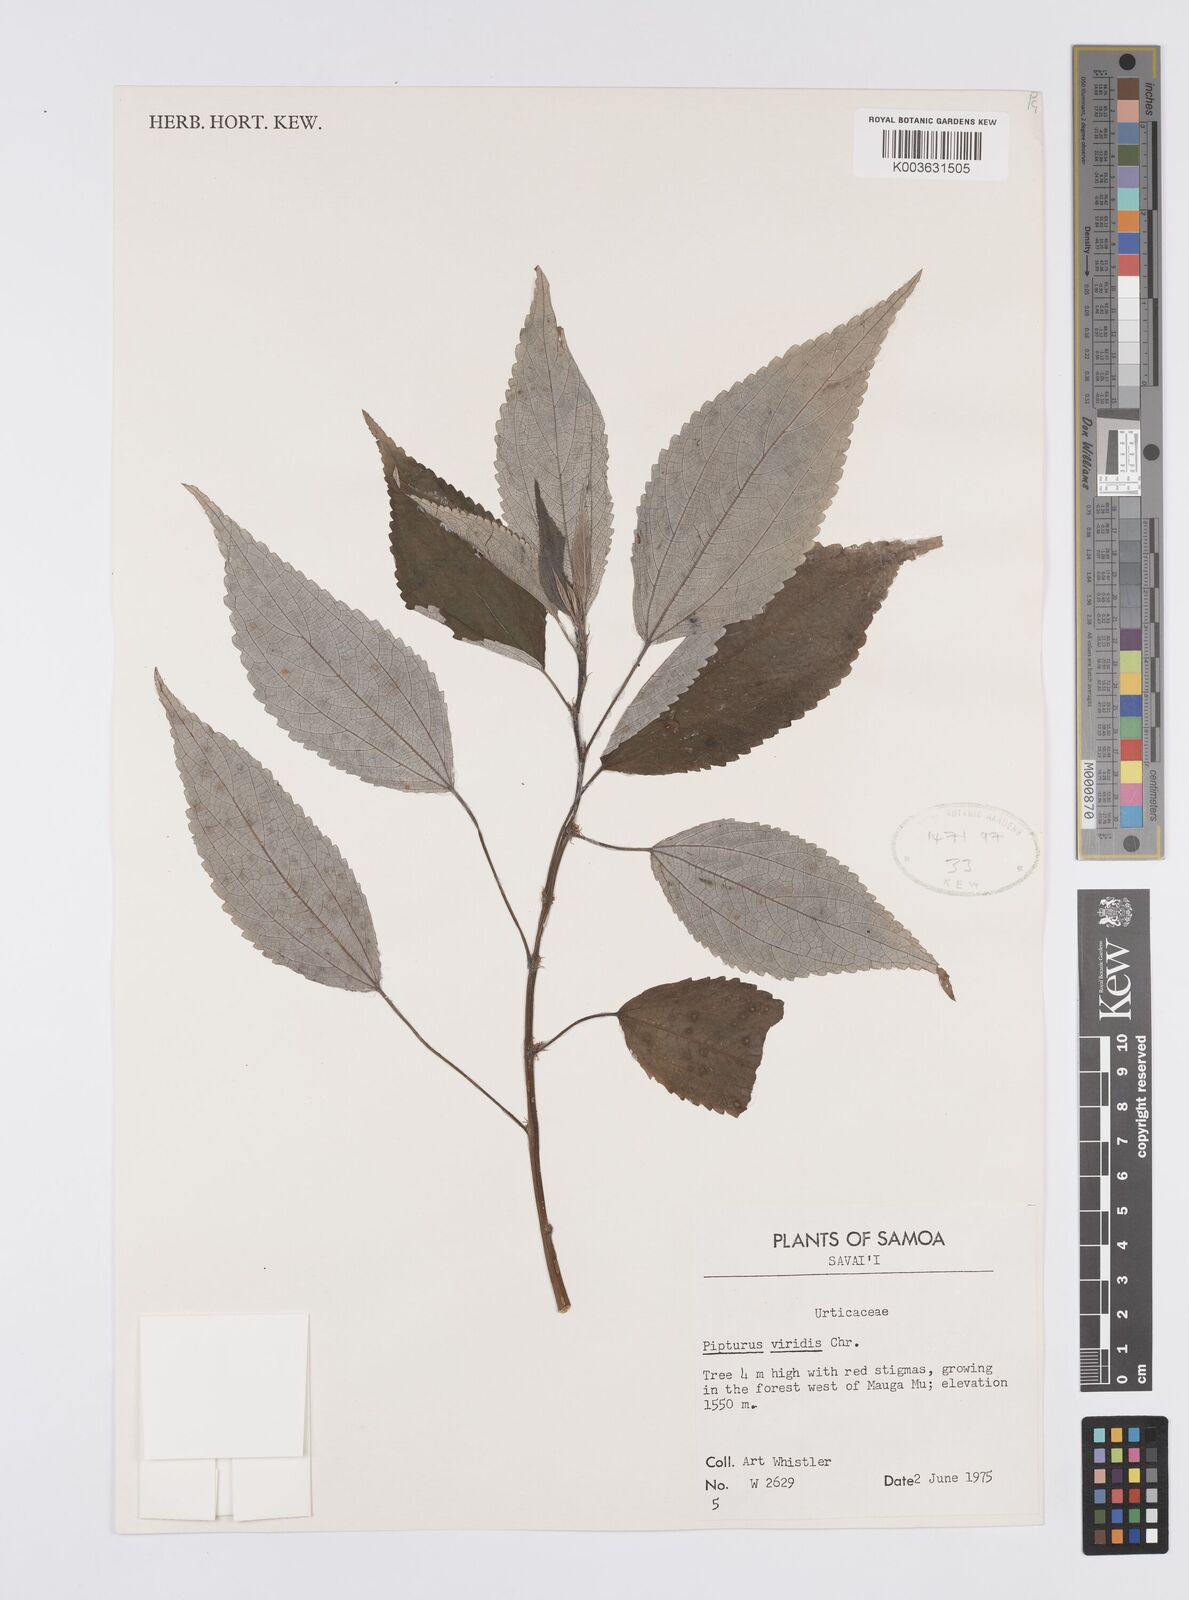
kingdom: Plantae
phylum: Tracheophyta
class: Magnoliopsida
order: Rosales
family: Urticaceae
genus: Pipturus
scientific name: Pipturus viridis
